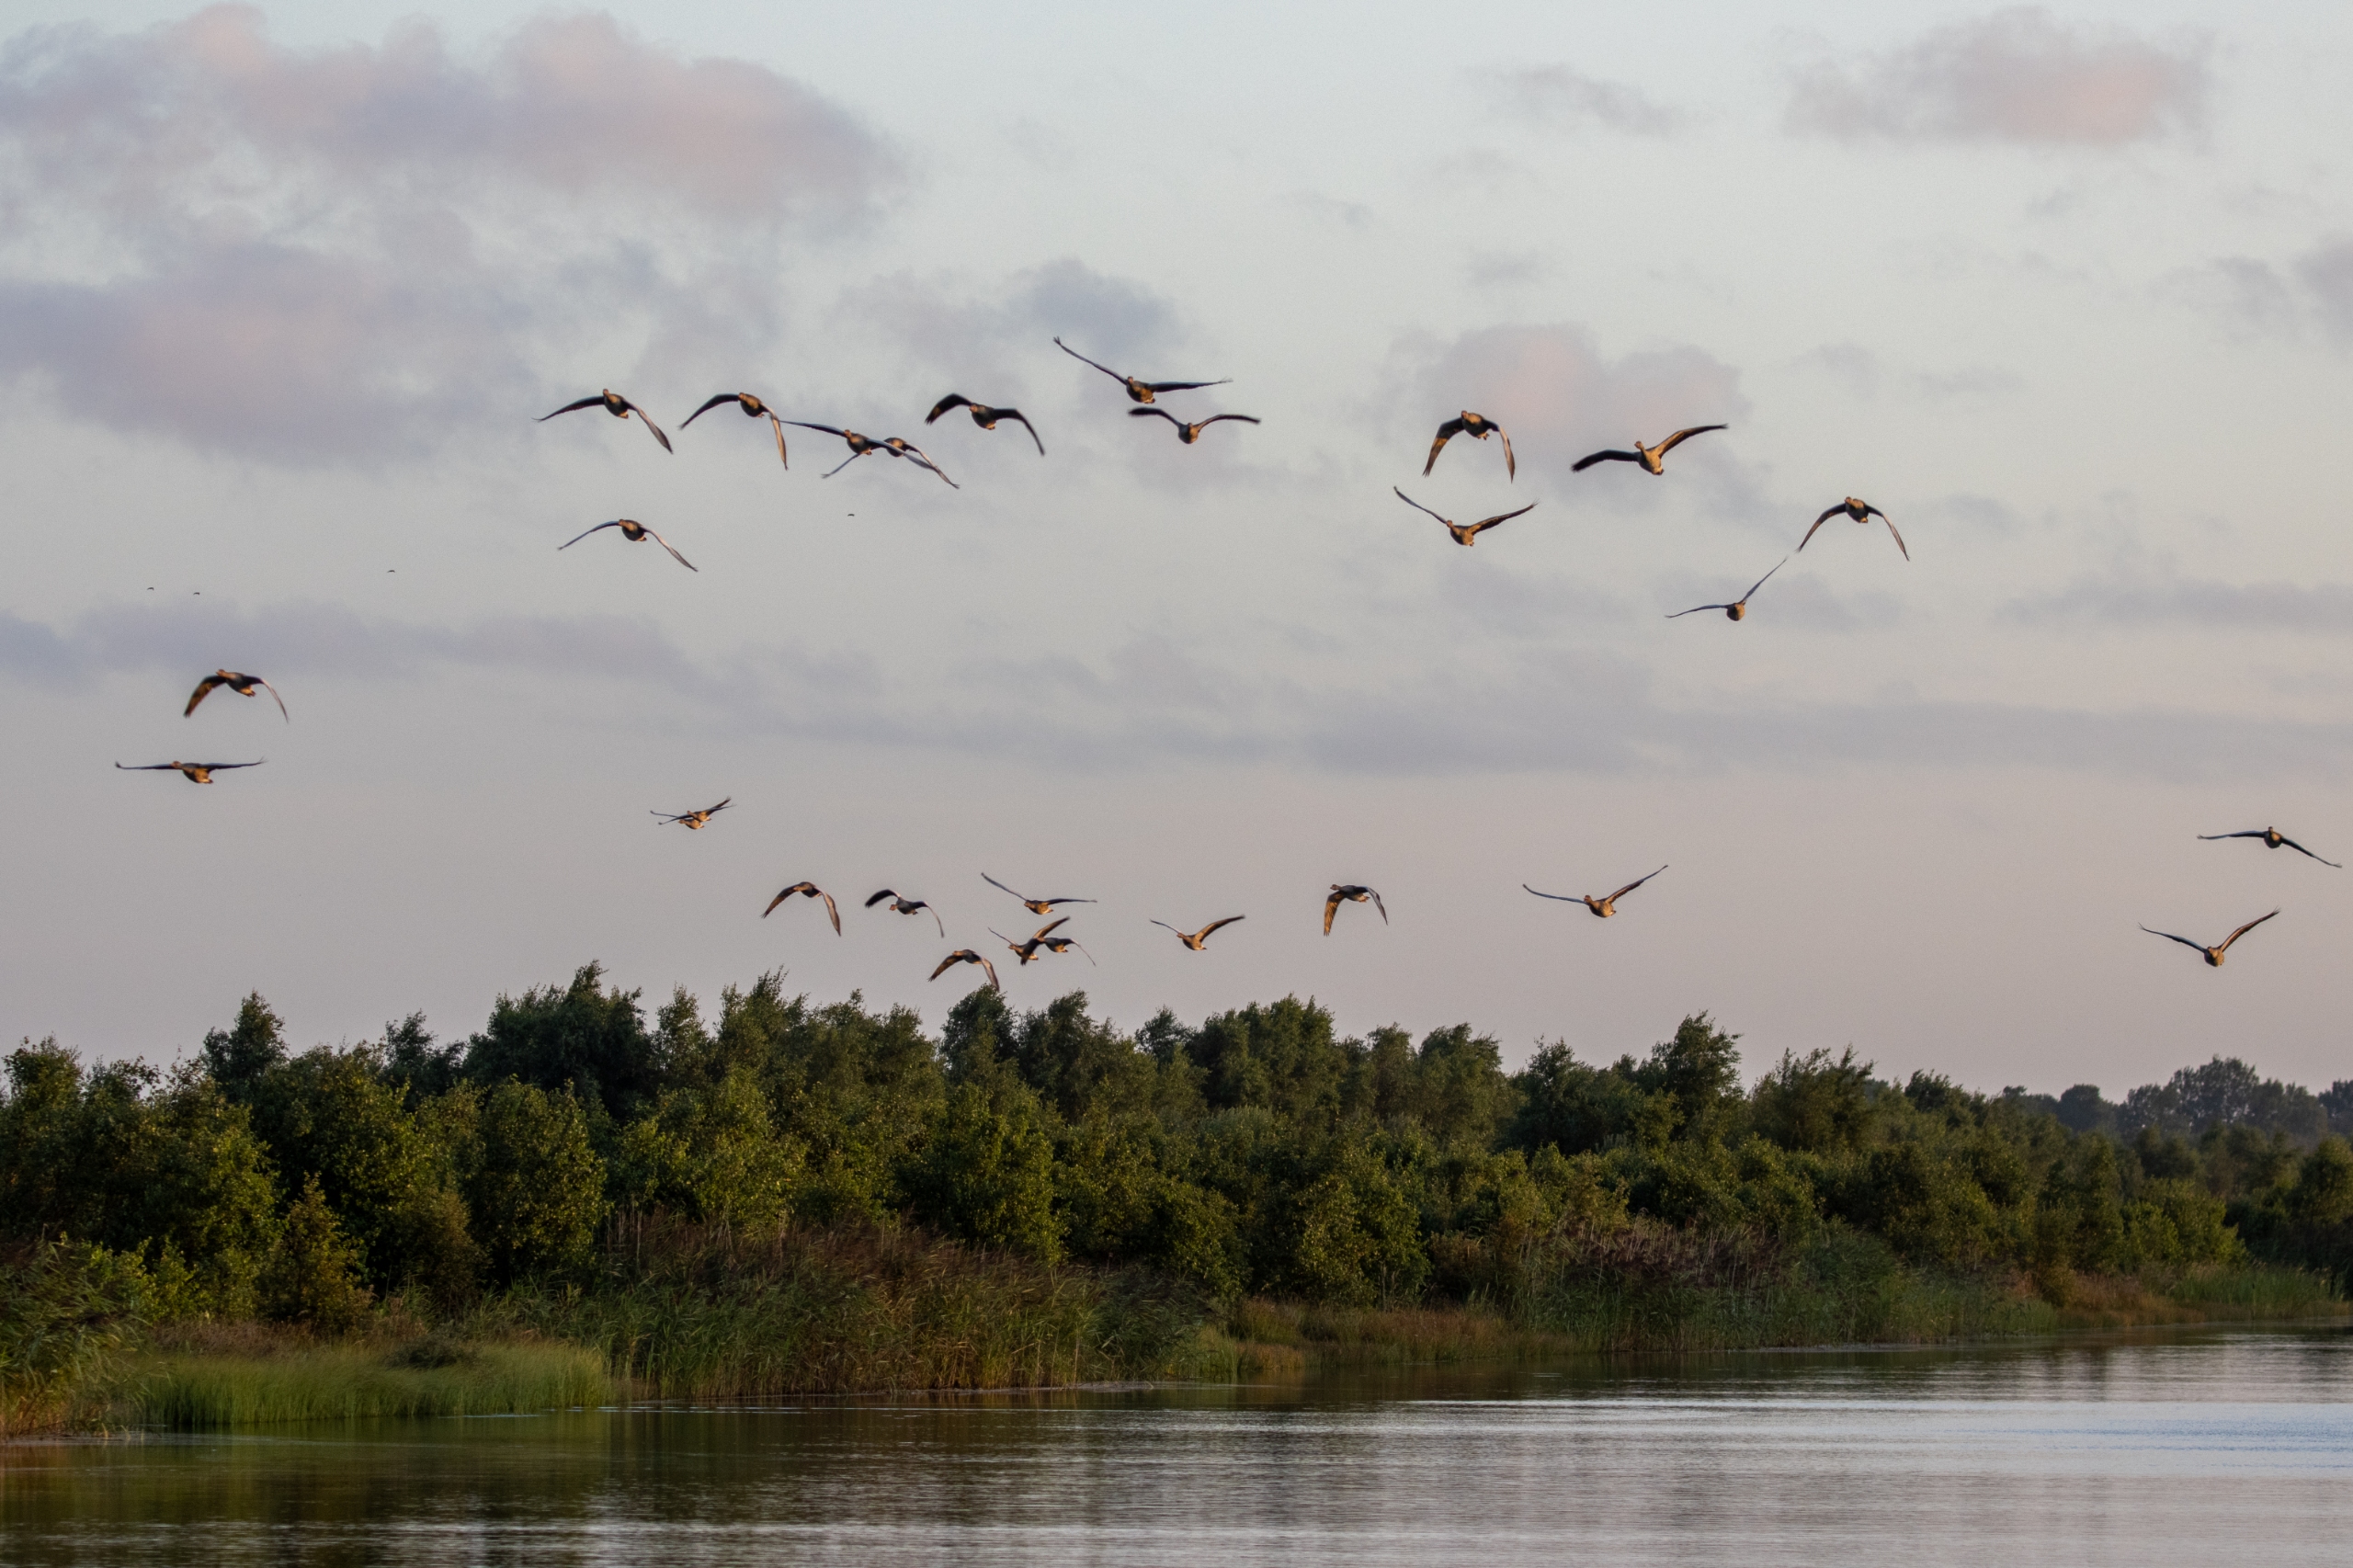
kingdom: Animalia
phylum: Chordata
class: Aves
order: Anseriformes
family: Anatidae
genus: Anser
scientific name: Anser anser
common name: Grågås
